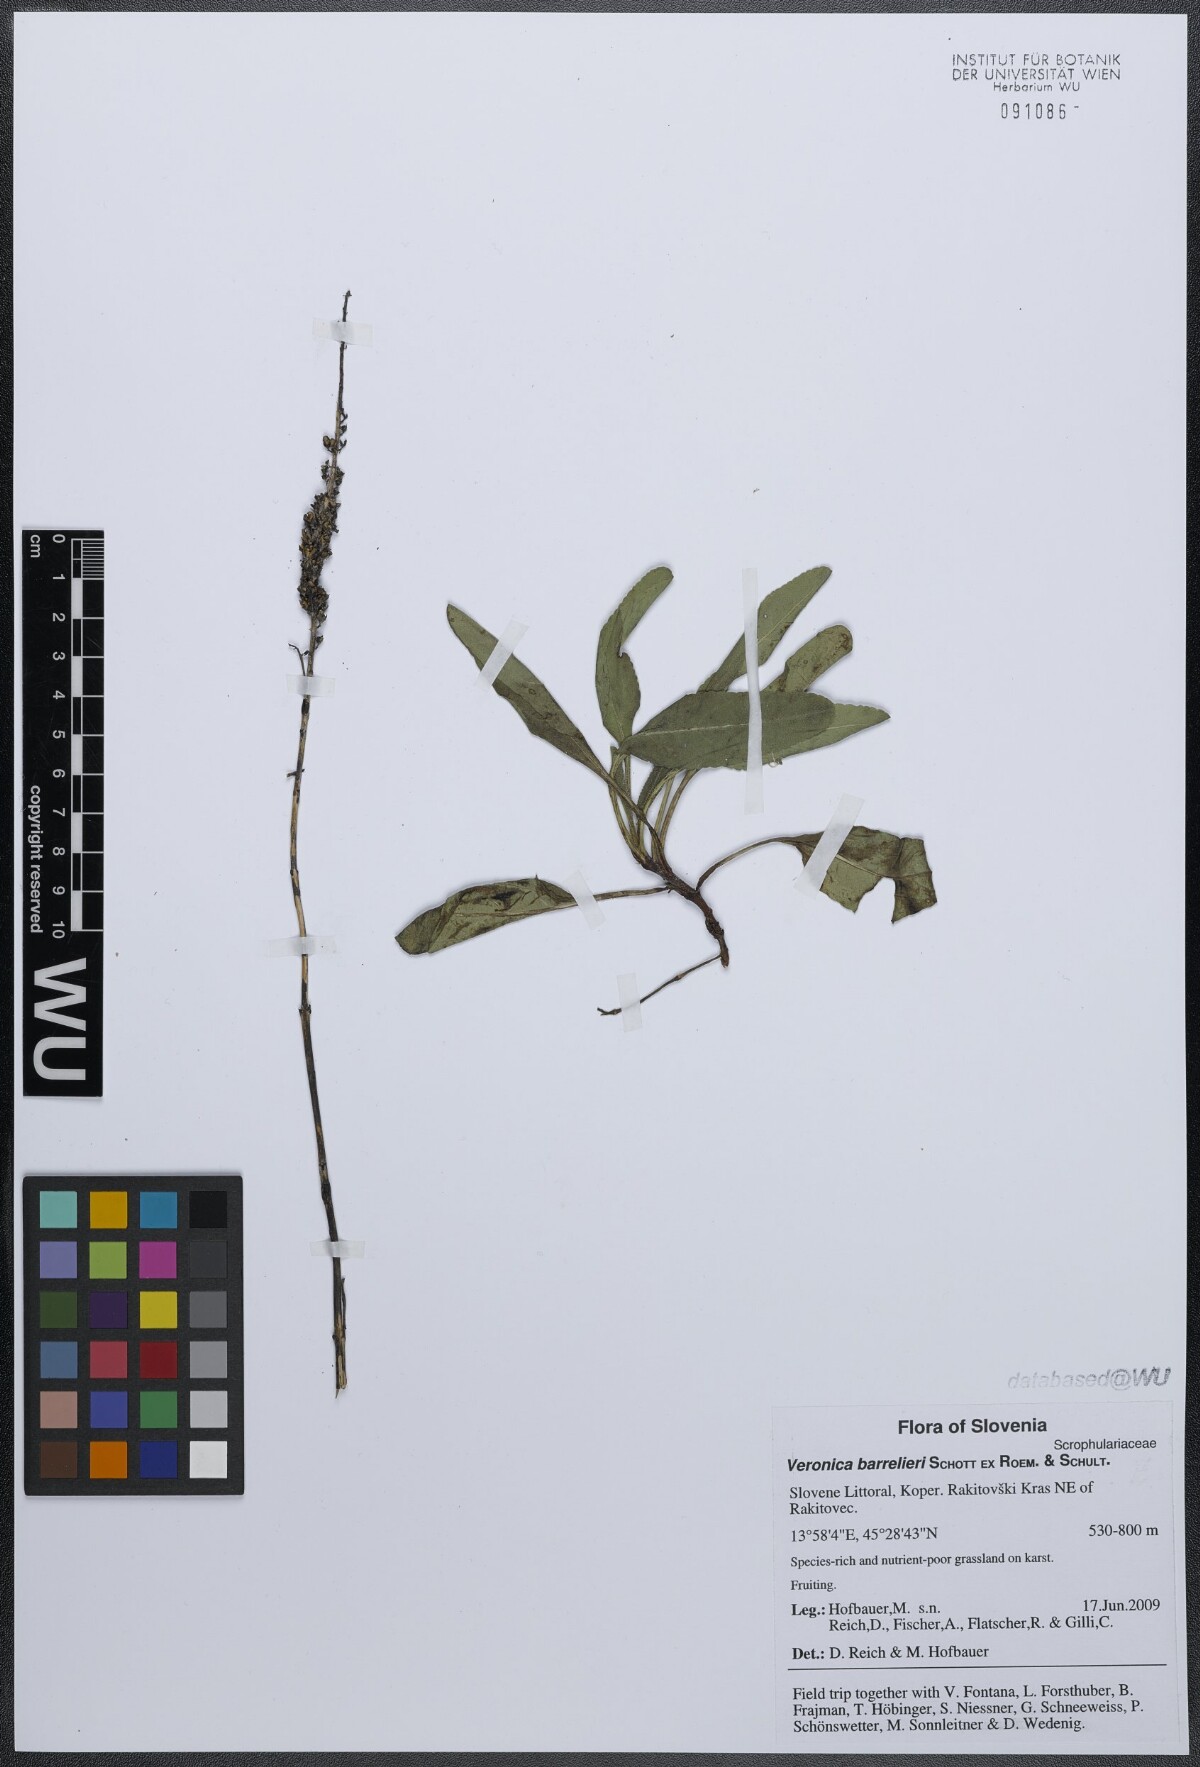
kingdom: Plantae
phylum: Tracheophyta
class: Magnoliopsida
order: Lamiales
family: Plantaginaceae
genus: Veronica
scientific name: Veronica barrelieri
